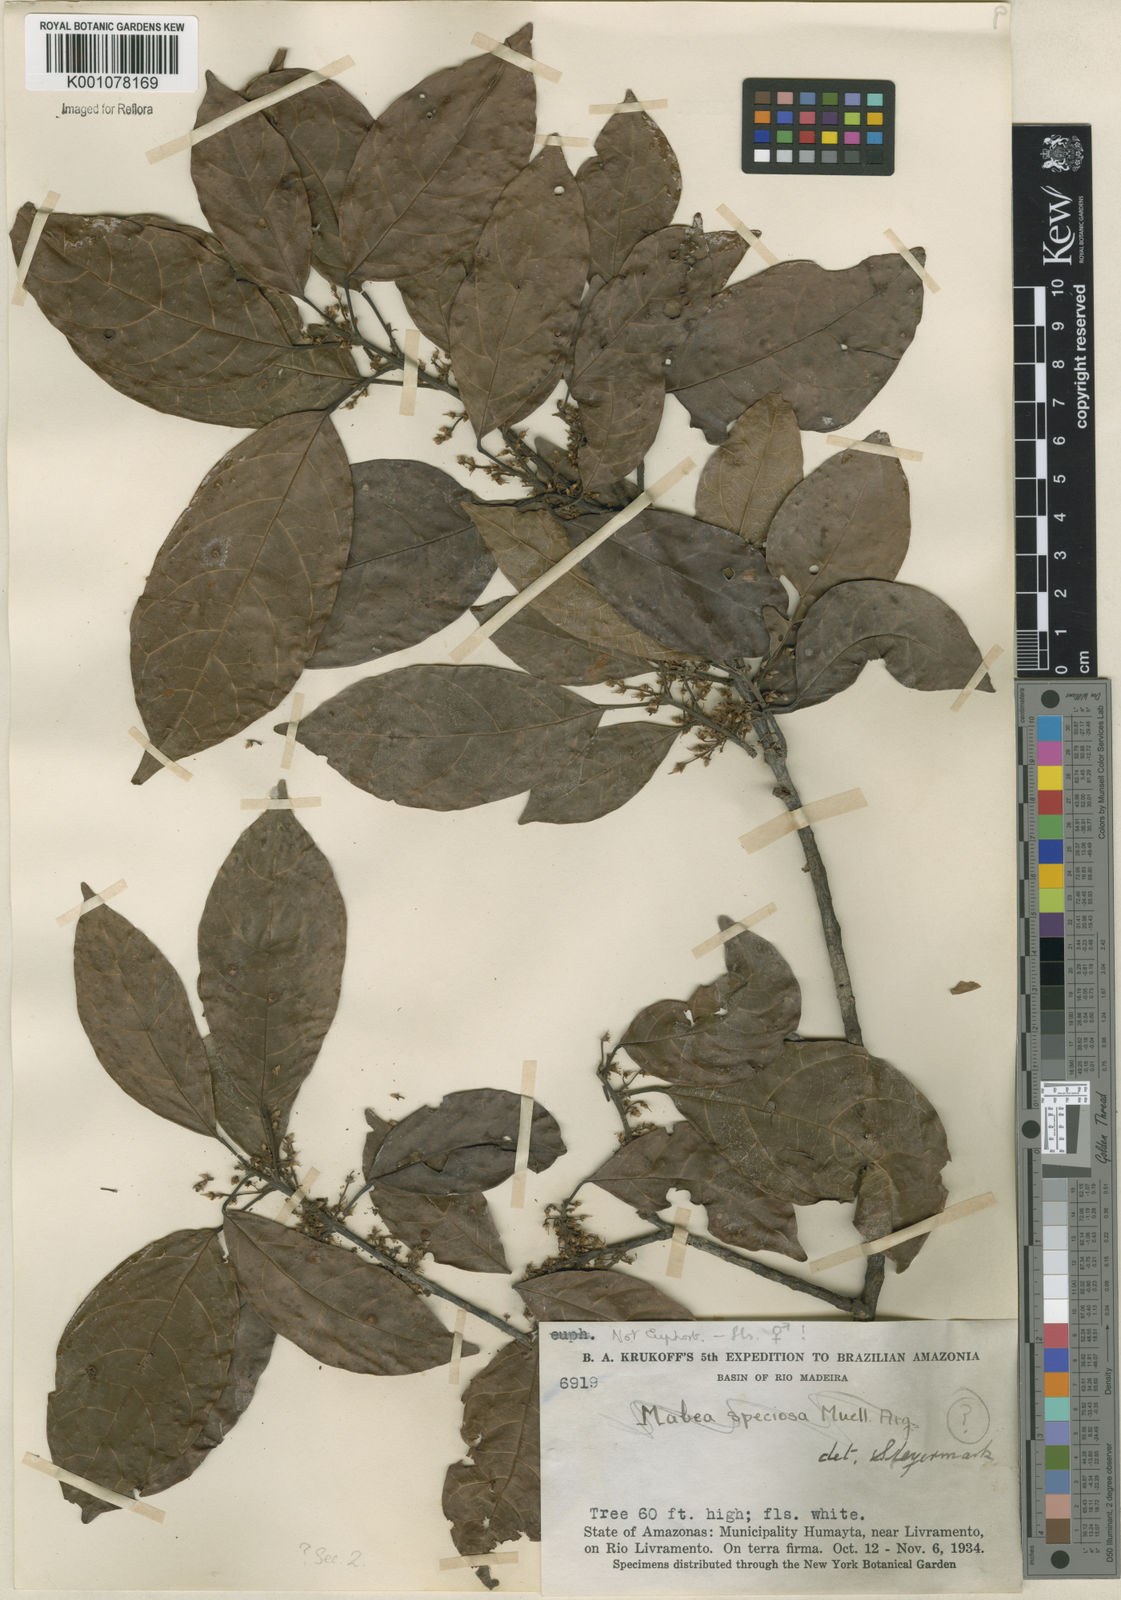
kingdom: Plantae
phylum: Tracheophyta
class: Magnoliopsida
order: Celastrales
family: Celastraceae
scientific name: Celastraceae
